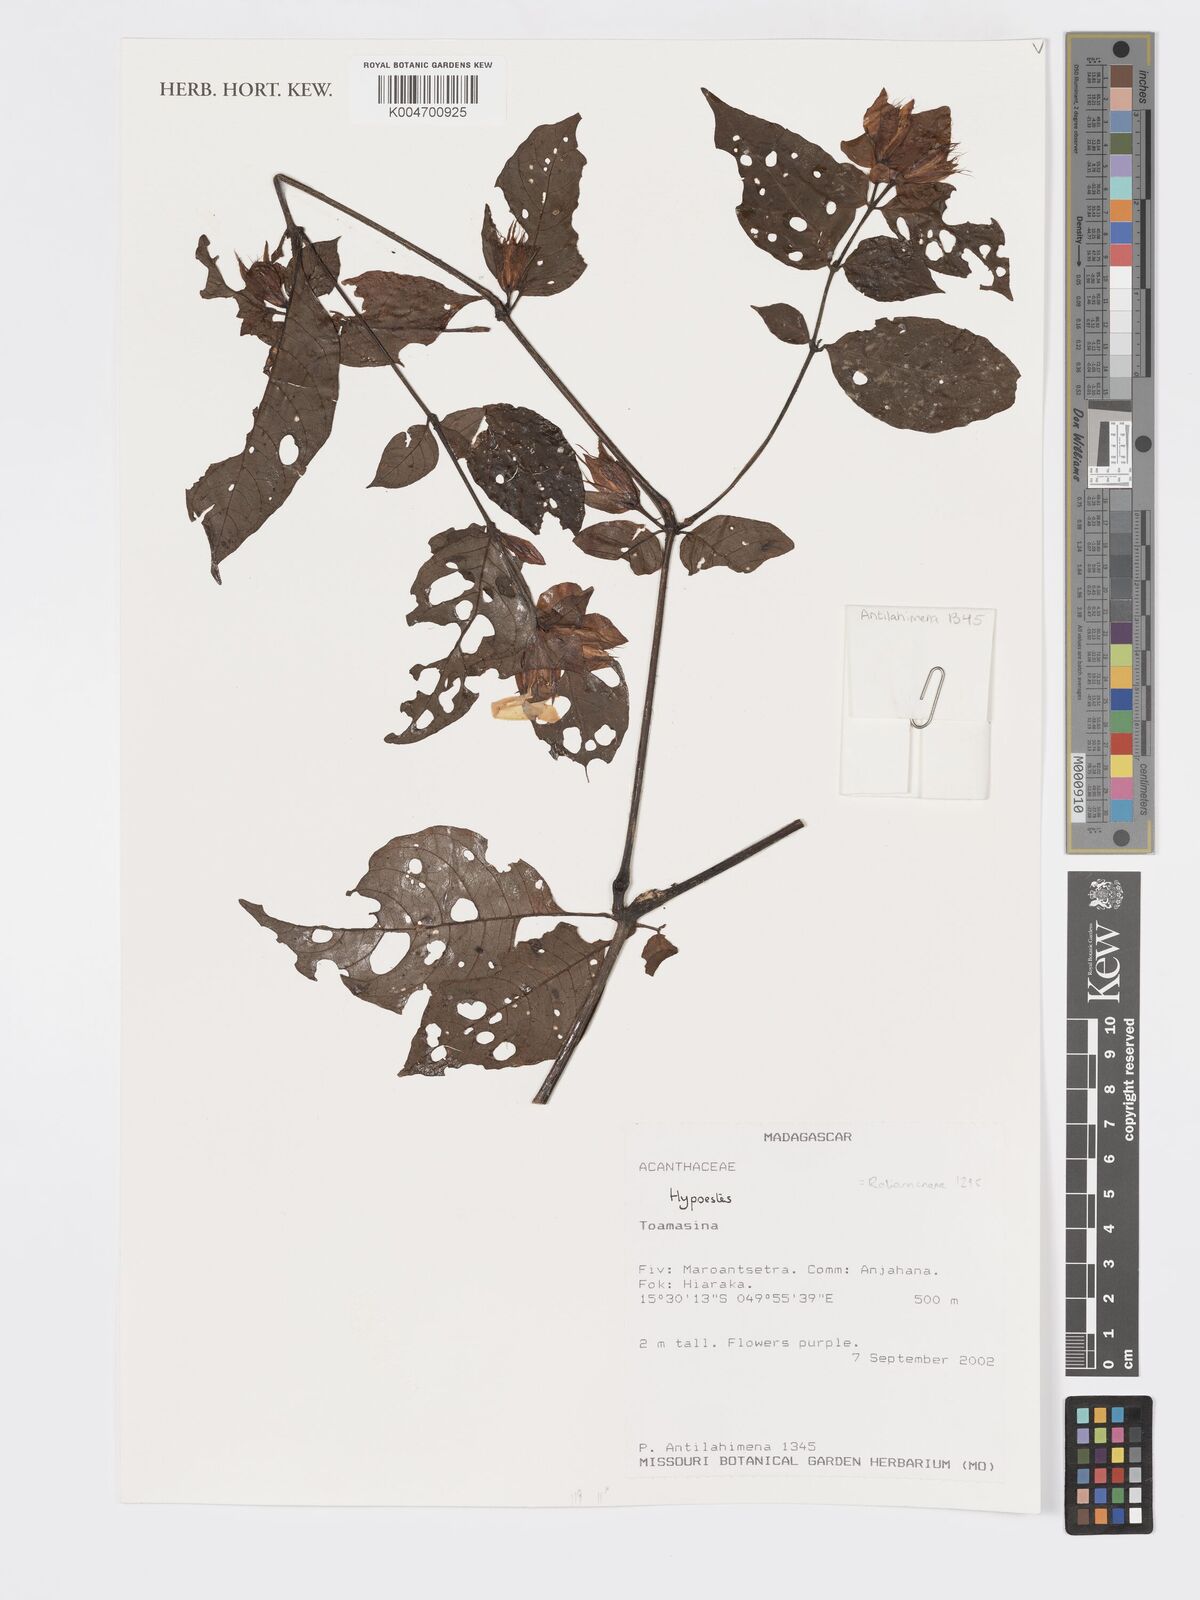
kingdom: Plantae
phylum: Tracheophyta
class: Magnoliopsida
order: Lamiales
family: Acanthaceae
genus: Hypoestes
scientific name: Hypoestes
